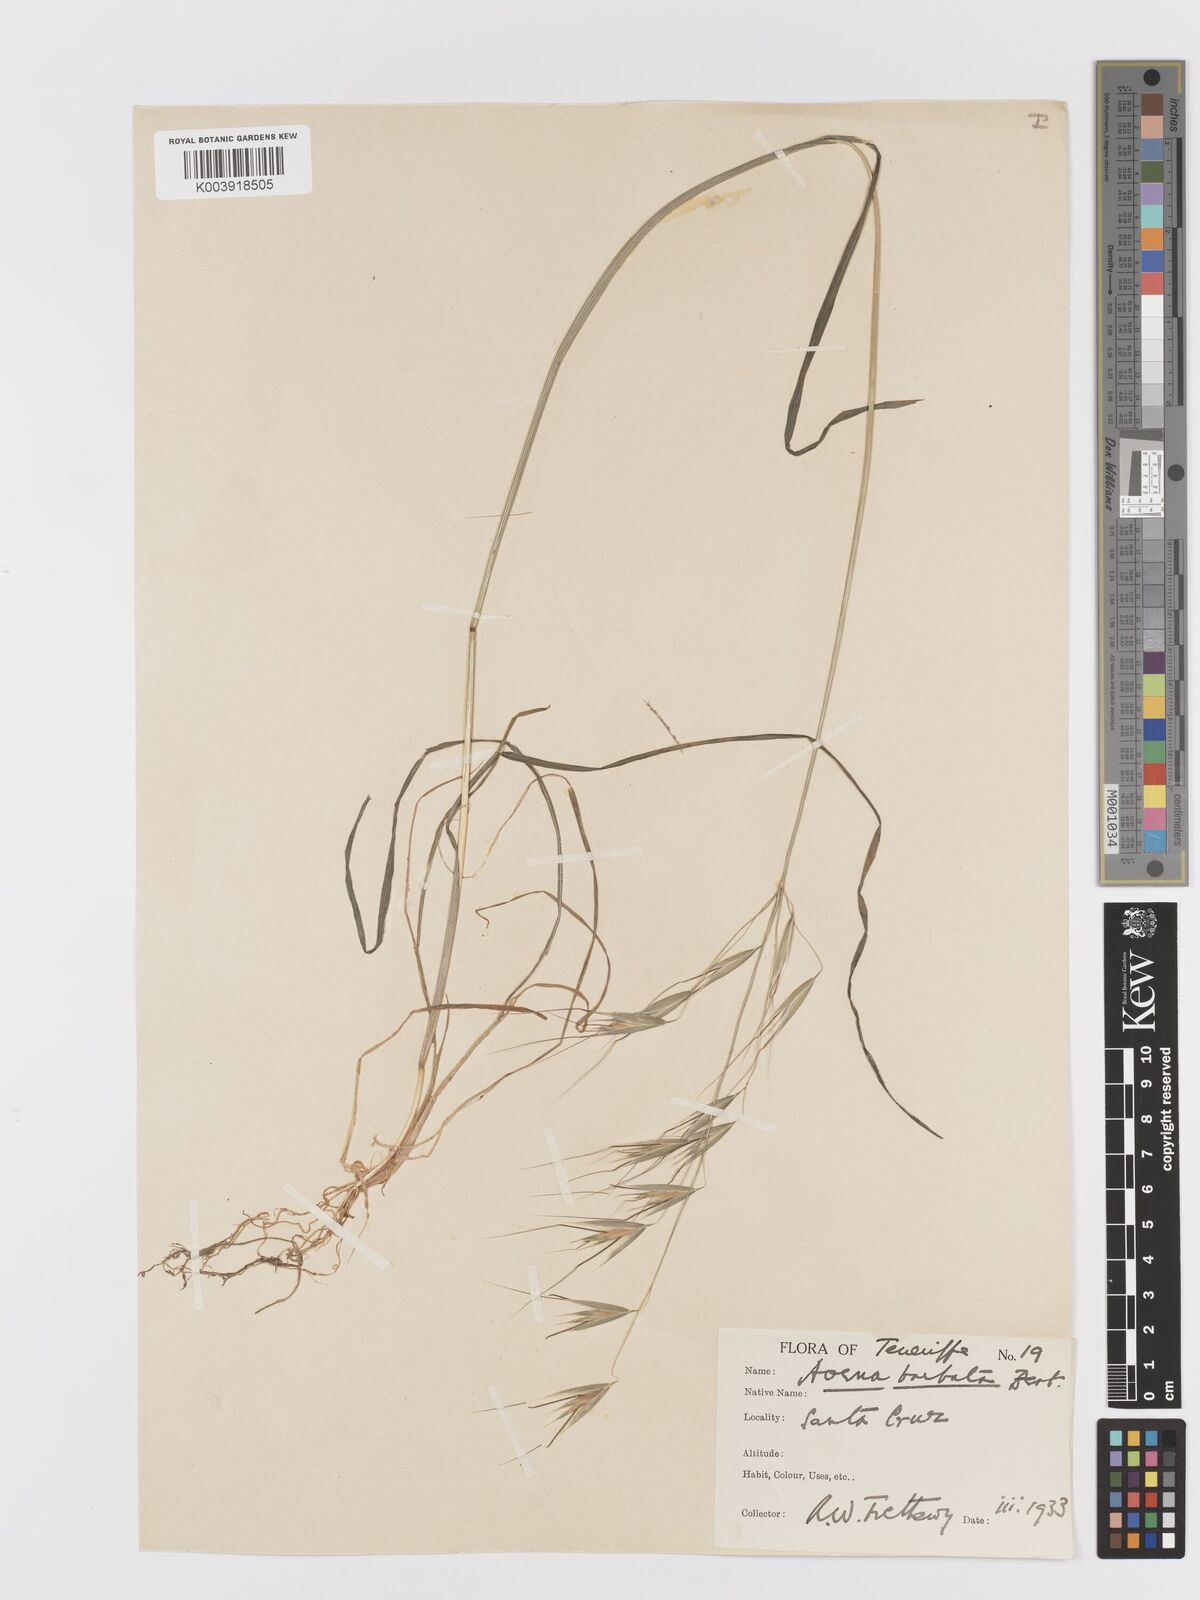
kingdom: Plantae
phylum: Tracheophyta
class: Liliopsida
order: Poales
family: Poaceae
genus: Avena
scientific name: Avena
